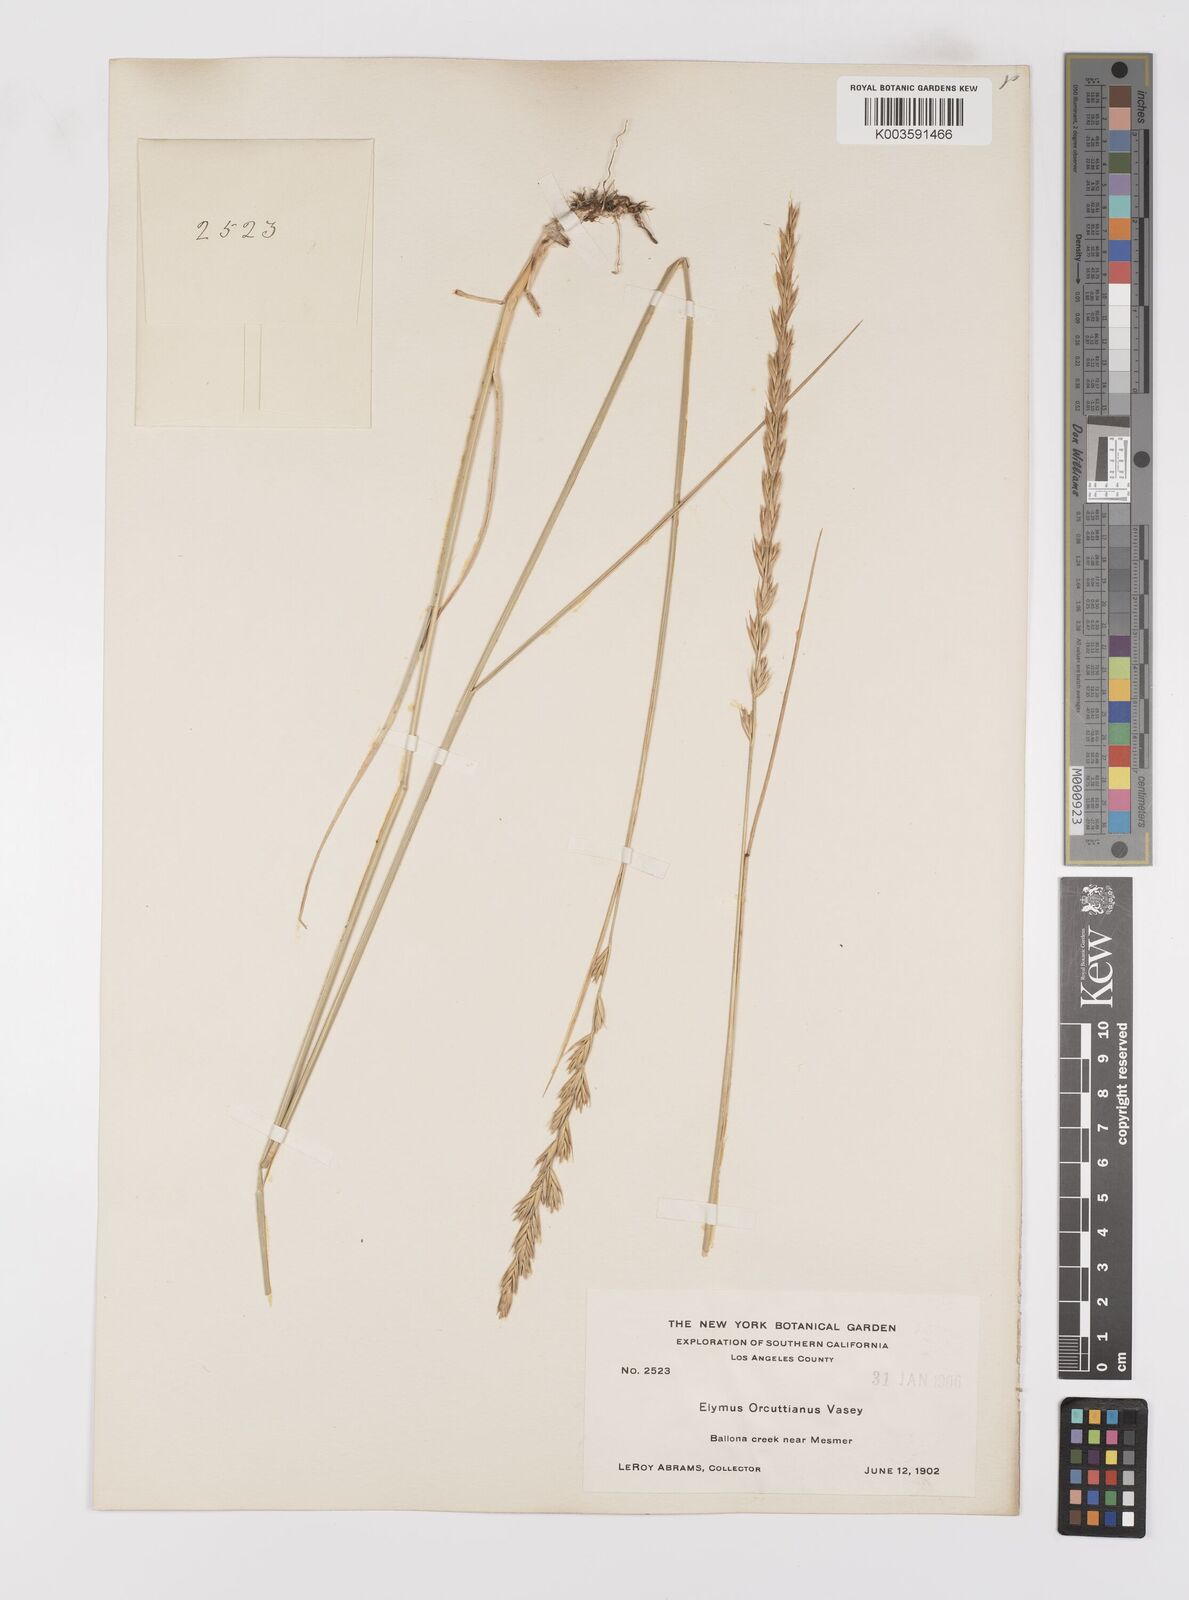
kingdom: Plantae
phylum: Tracheophyta
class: Liliopsida
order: Poales
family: Poaceae
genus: Leymus
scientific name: Leymus triticoides
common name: Beardless wild rye
